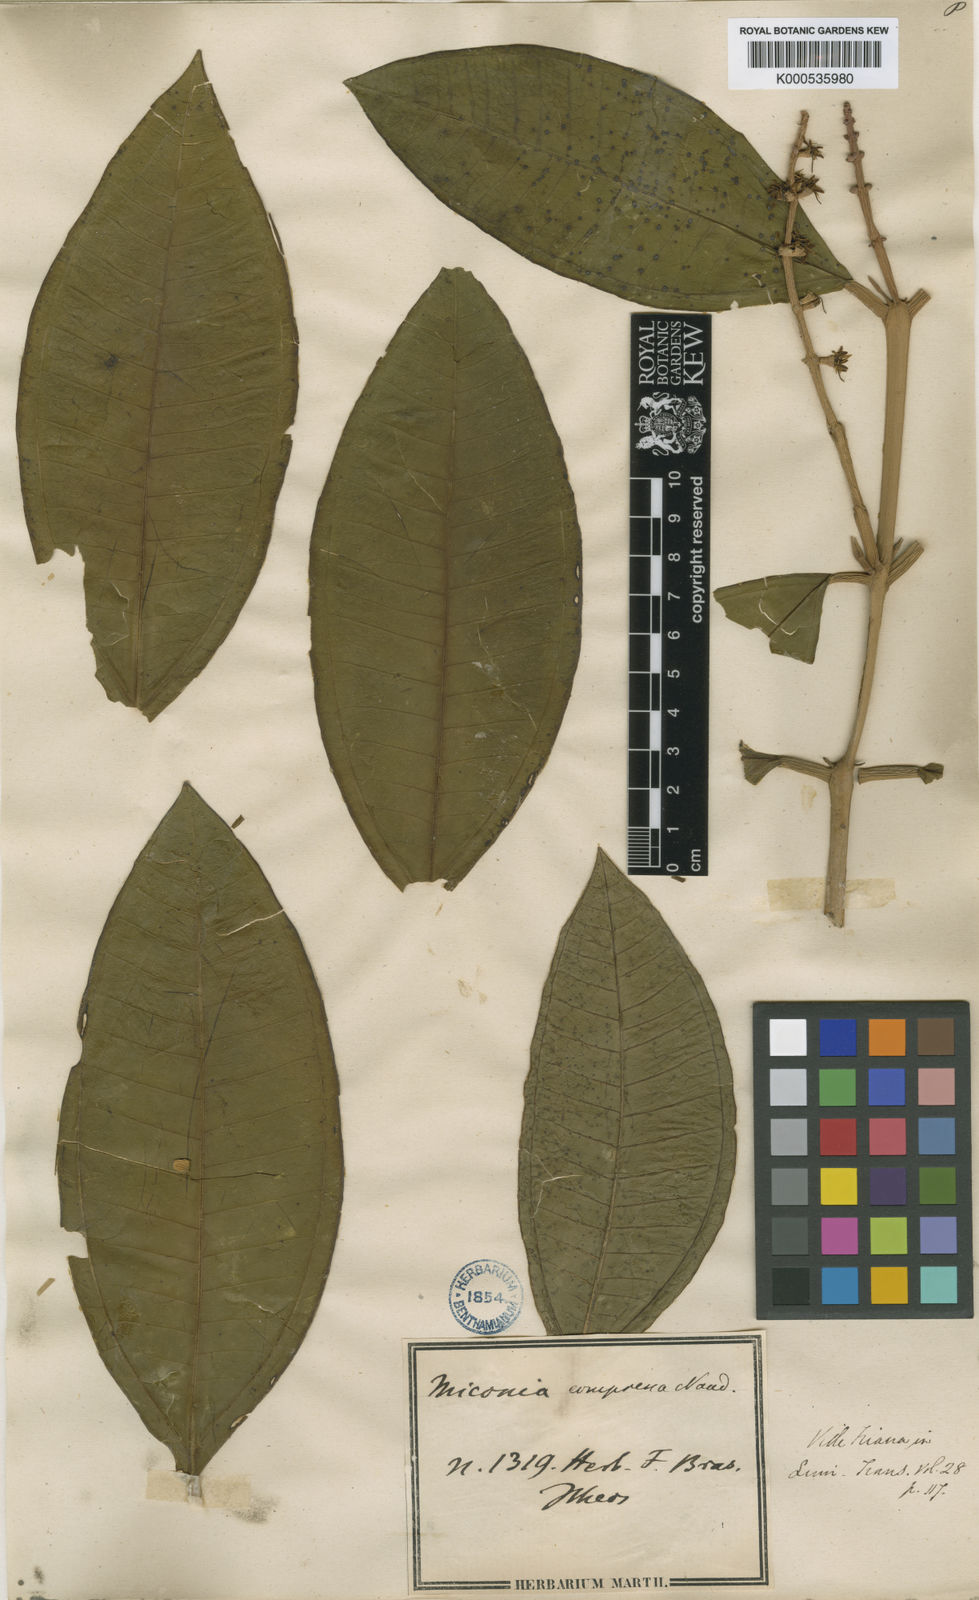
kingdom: Plantae
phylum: Tracheophyta
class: Magnoliopsida
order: Myrtales
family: Melastomataceae
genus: Miconia
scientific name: Miconia compressa
